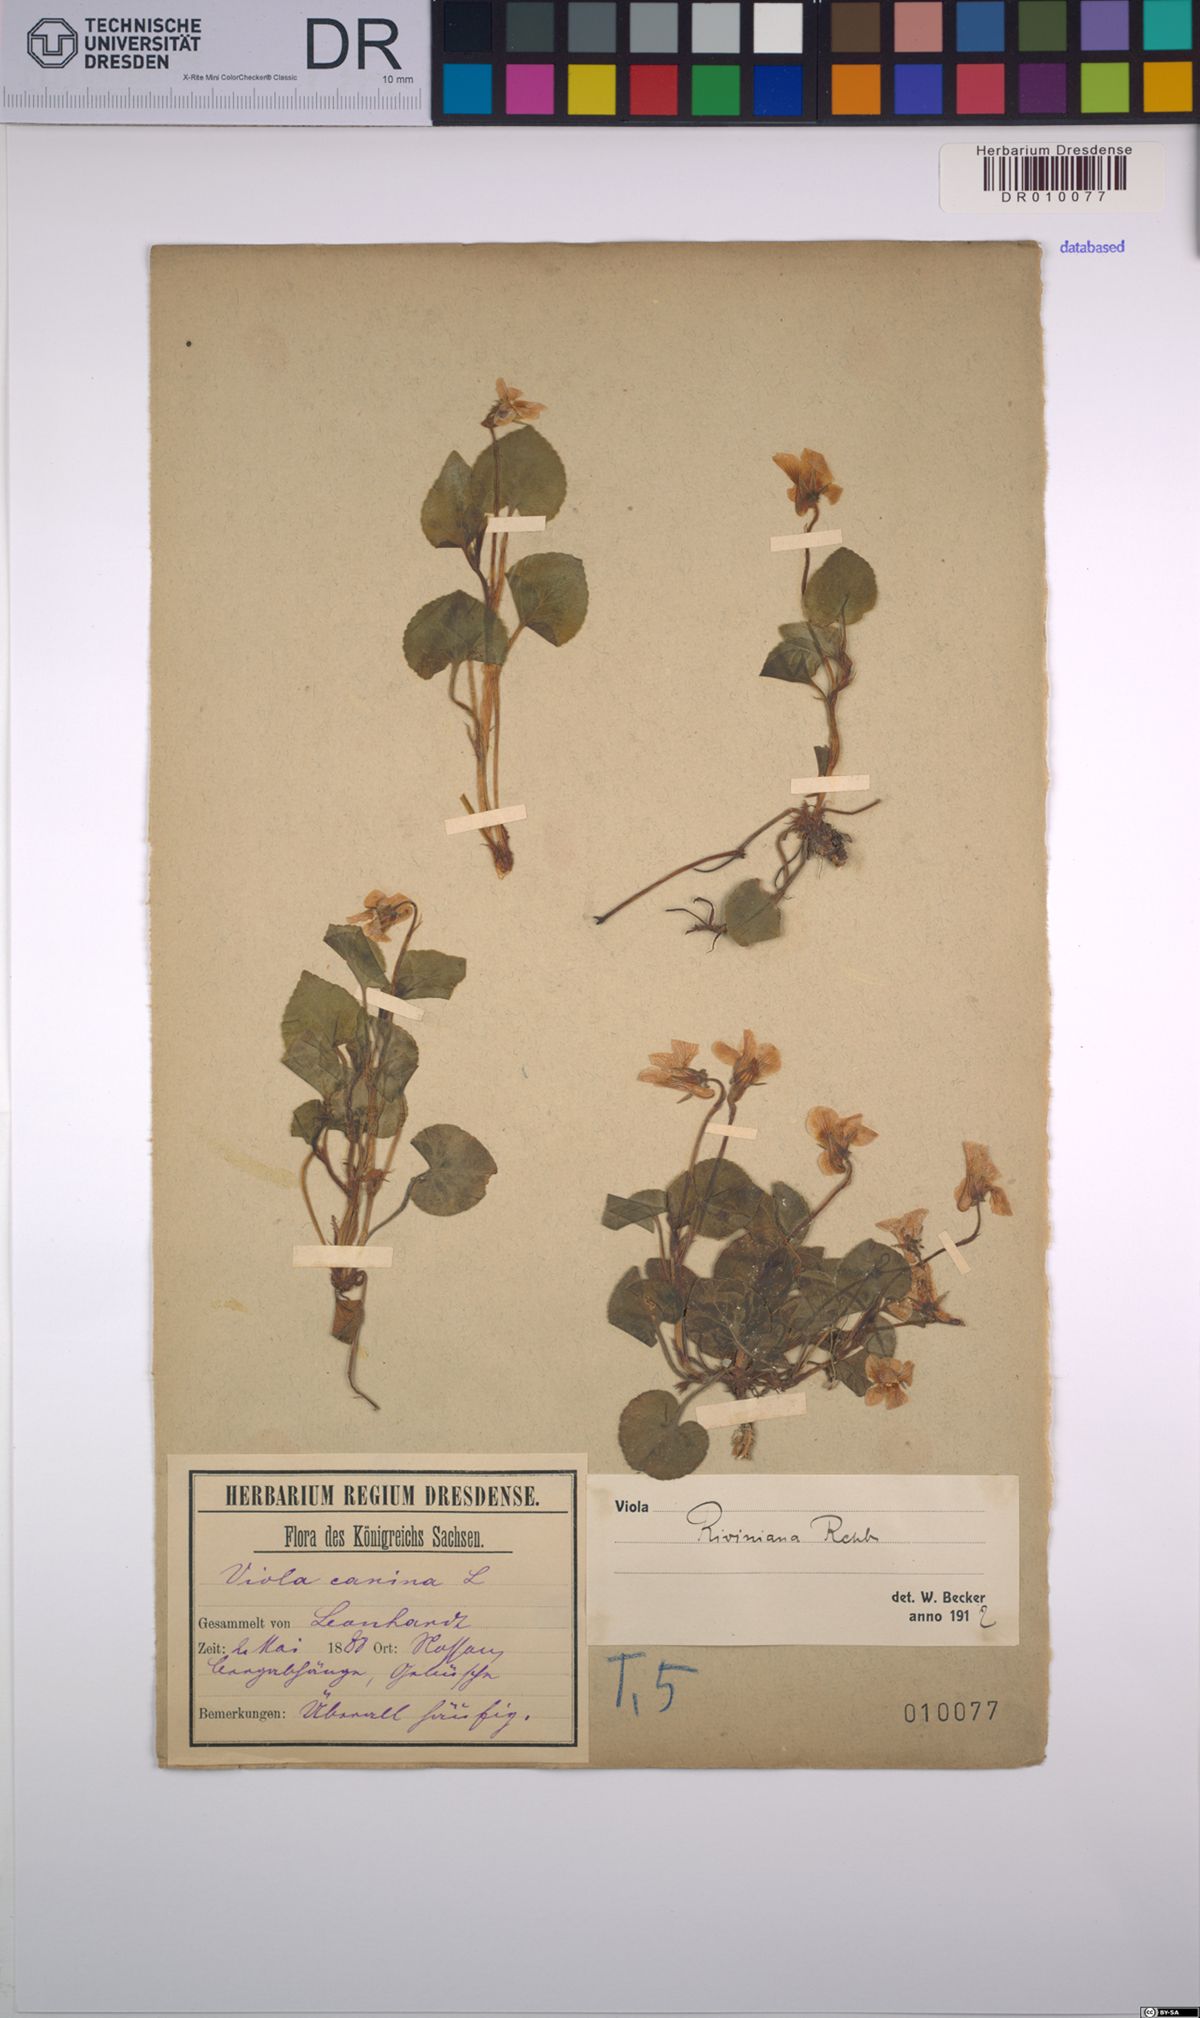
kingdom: Plantae
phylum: Tracheophyta
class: Magnoliopsida
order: Malpighiales
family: Violaceae
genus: Viola
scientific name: Viola riviniana
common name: Common dog-violet
